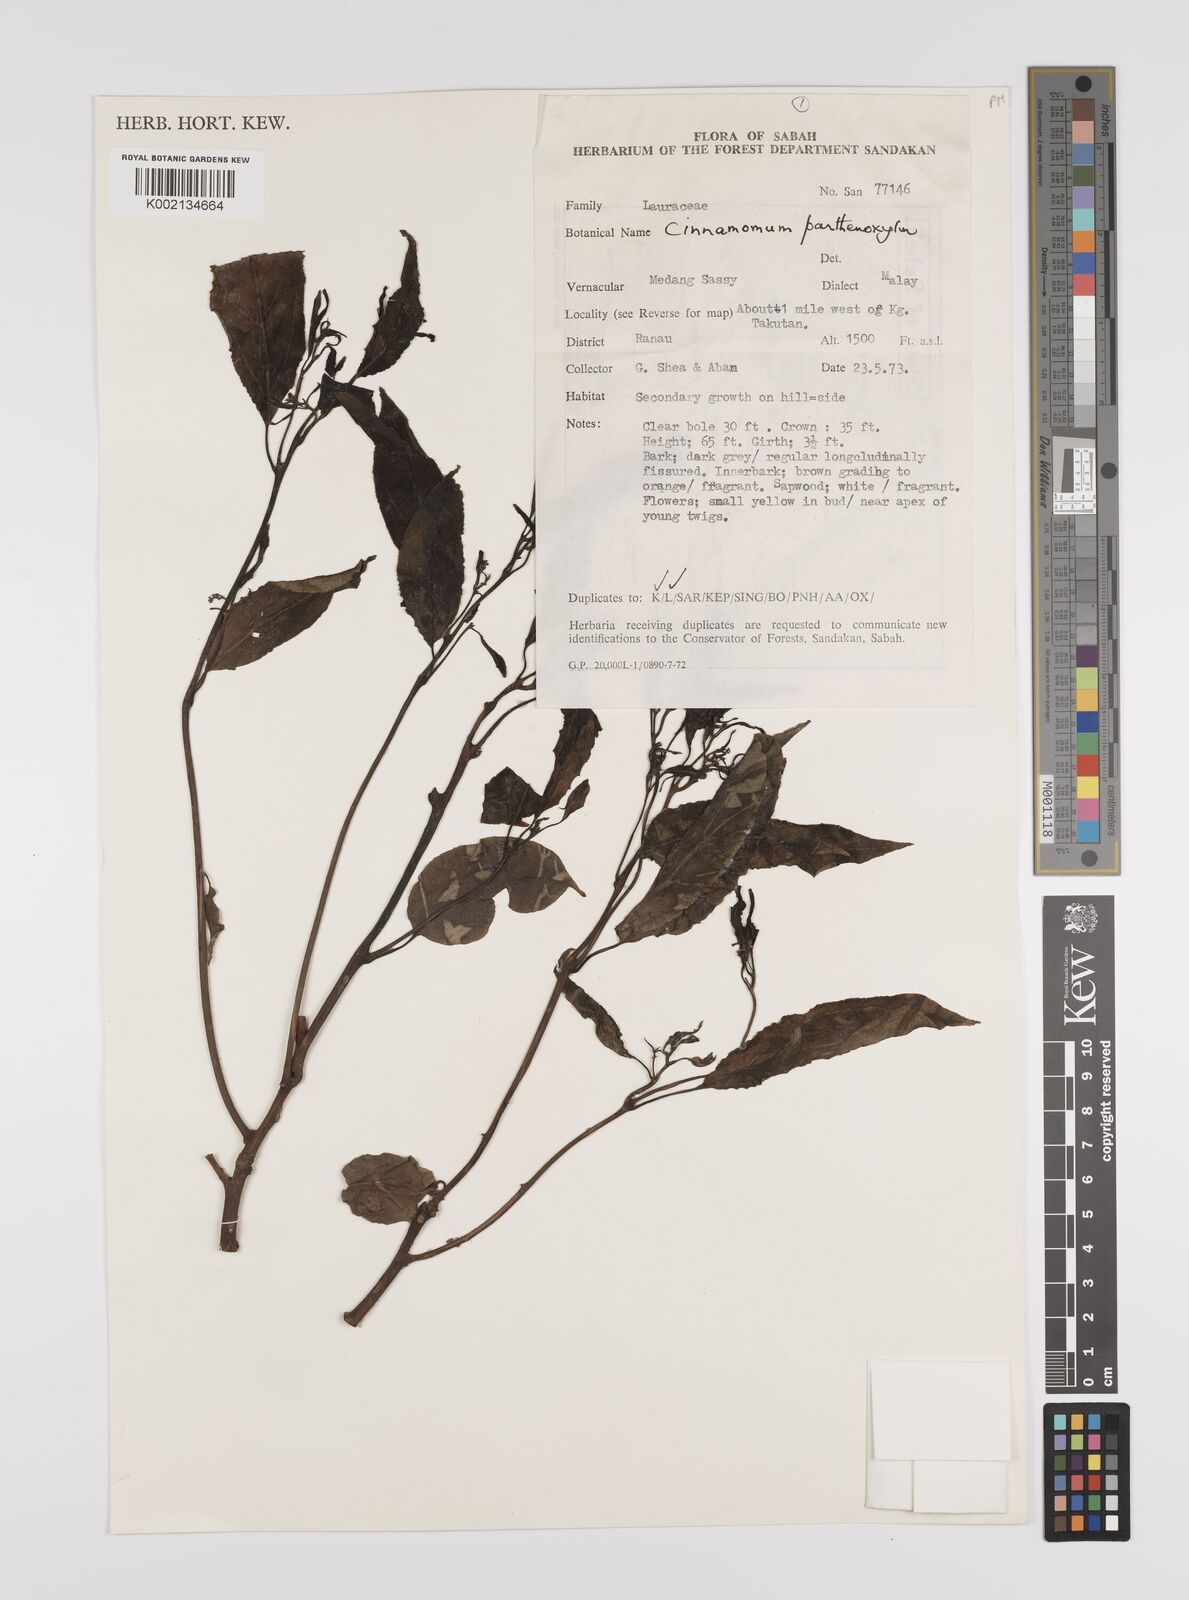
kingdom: Plantae
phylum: Tracheophyta
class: Magnoliopsida
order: Laurales
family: Lauraceae
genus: Cinnamomum
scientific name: Cinnamomum parthenoxylon
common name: Martaban camphor wood
